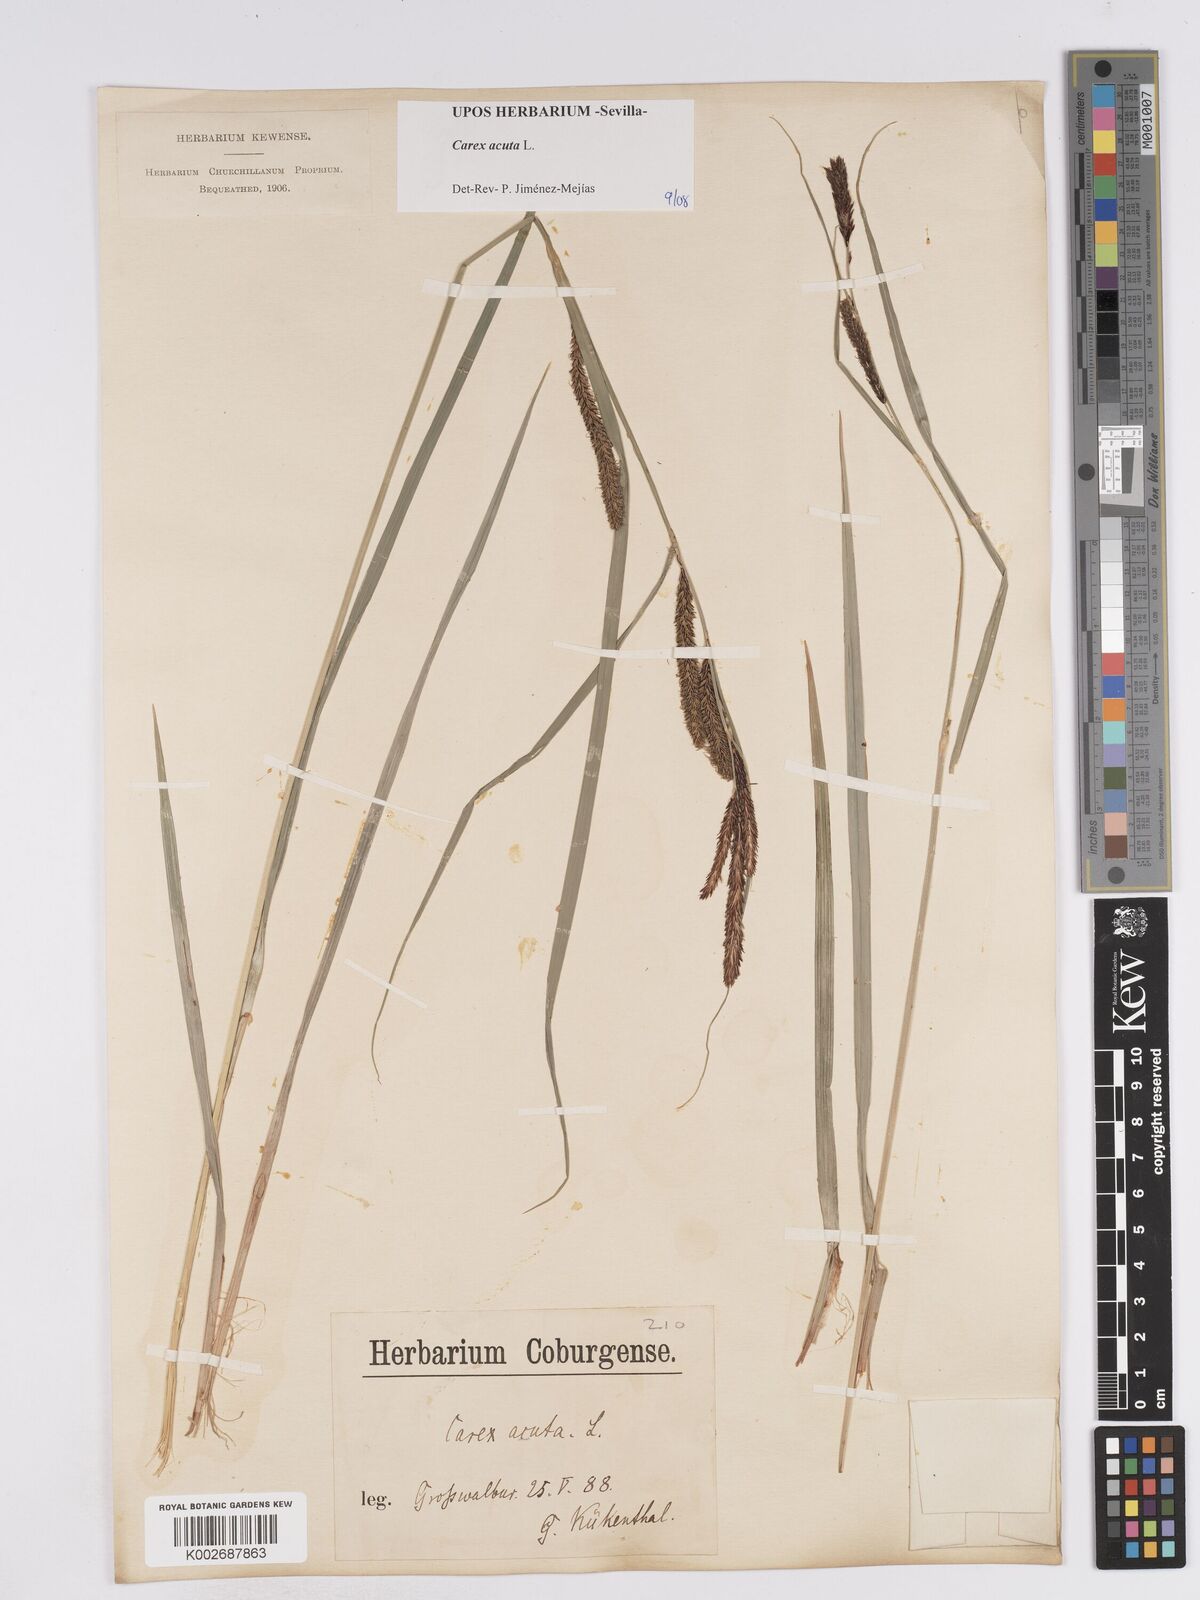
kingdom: Plantae
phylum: Tracheophyta
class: Liliopsida
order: Poales
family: Cyperaceae
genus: Carex
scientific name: Carex acuta
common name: Slender tufted-sedge
